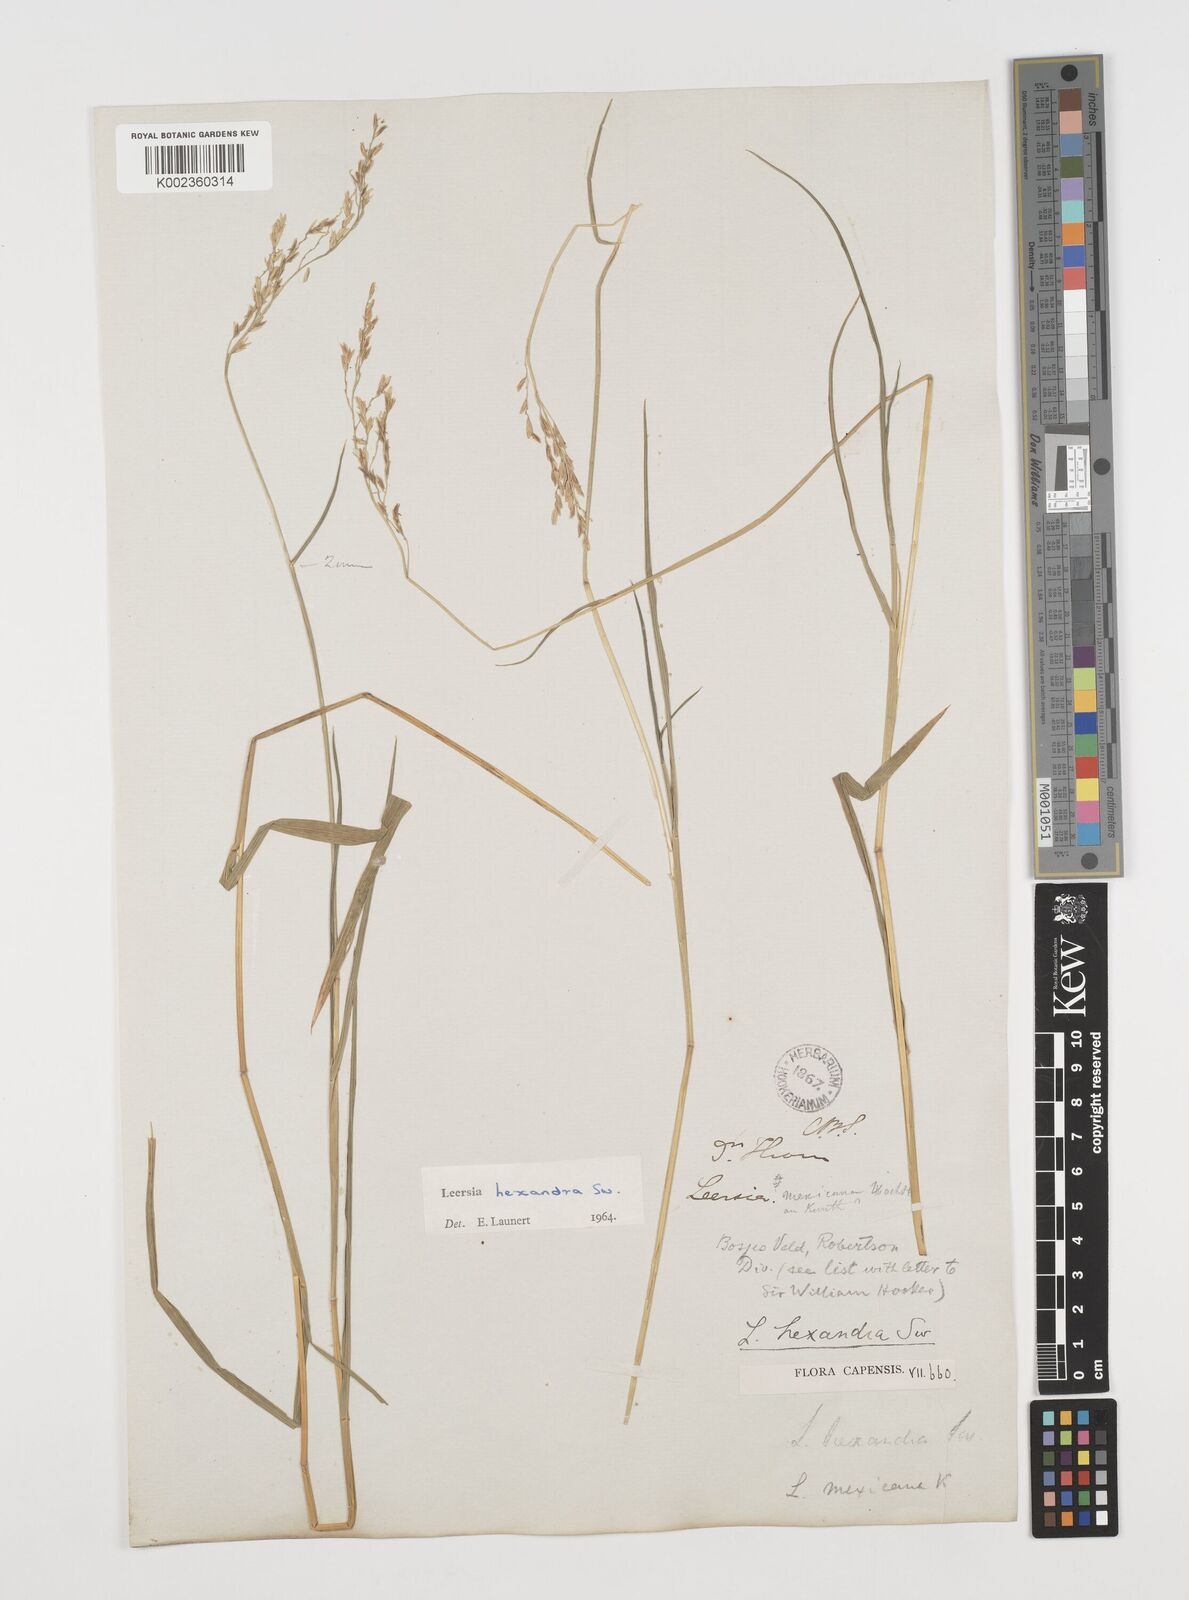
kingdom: Plantae
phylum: Tracheophyta
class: Liliopsida
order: Poales
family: Poaceae
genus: Leersia
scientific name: Leersia hexandra
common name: Southern cut grass
